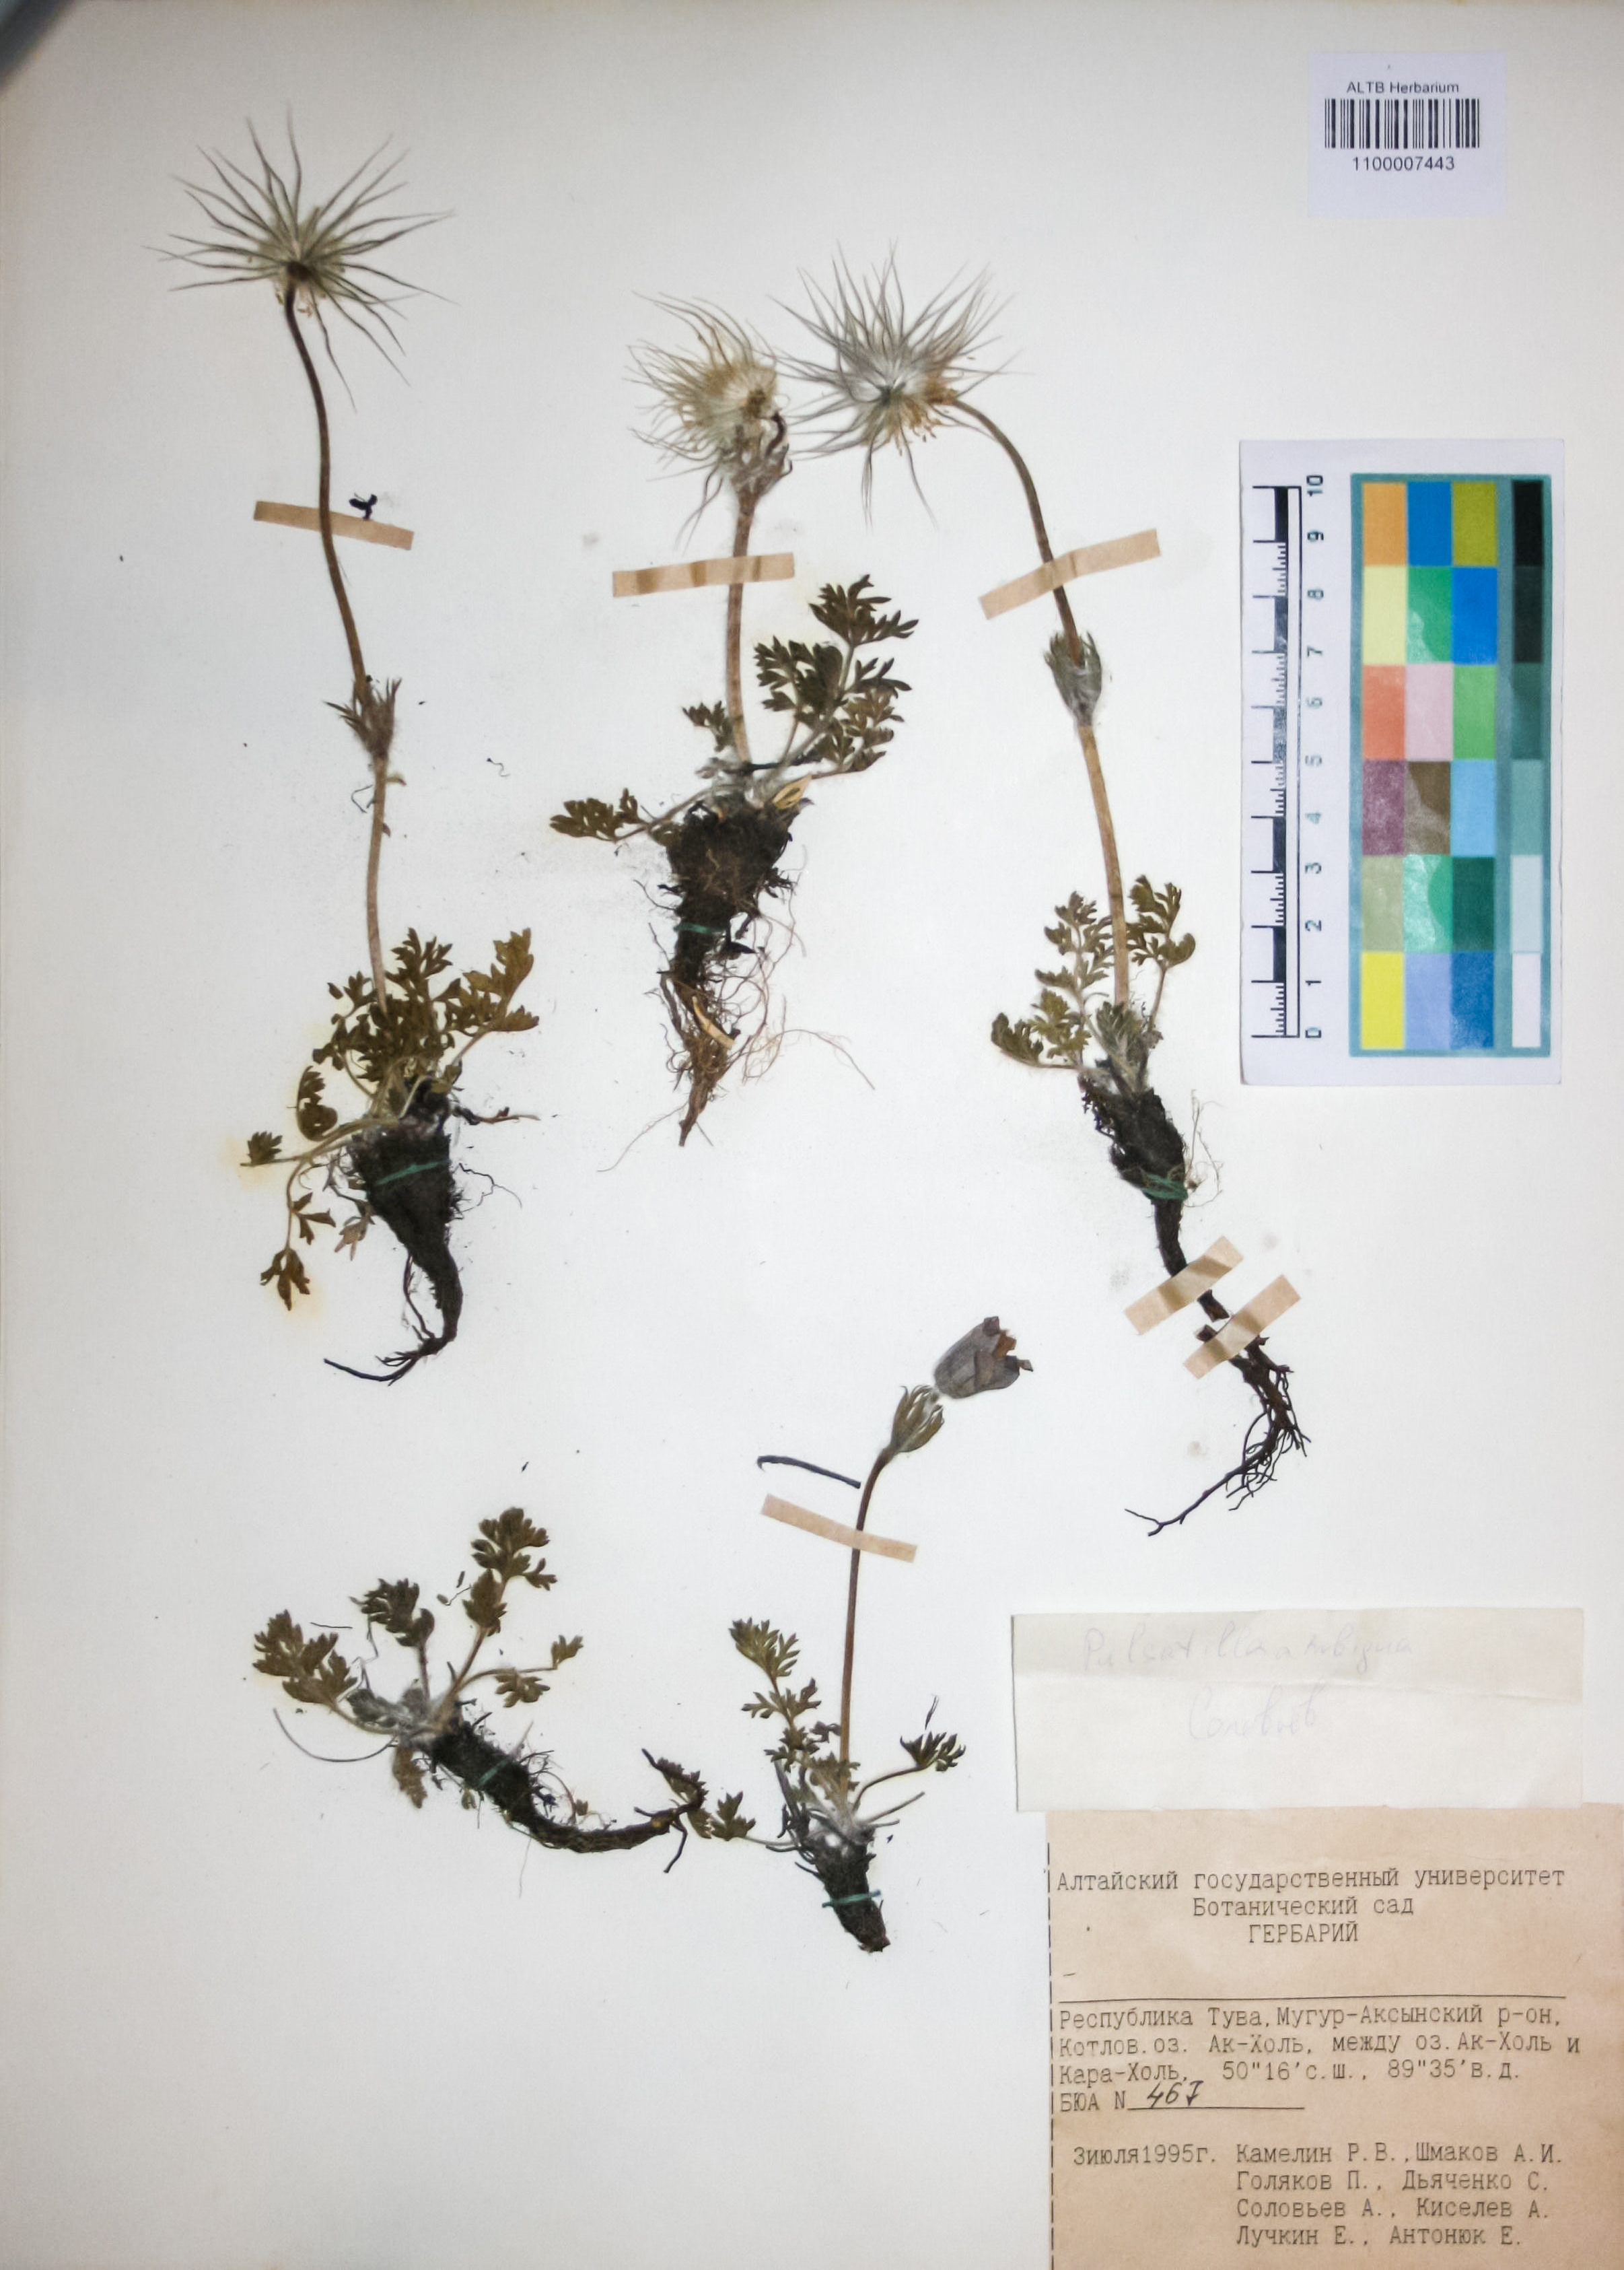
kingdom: Plantae
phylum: Tracheophyta
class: Magnoliopsida
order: Ranunculales
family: Ranunculaceae
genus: Pulsatilla
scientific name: Pulsatilla ambigua
